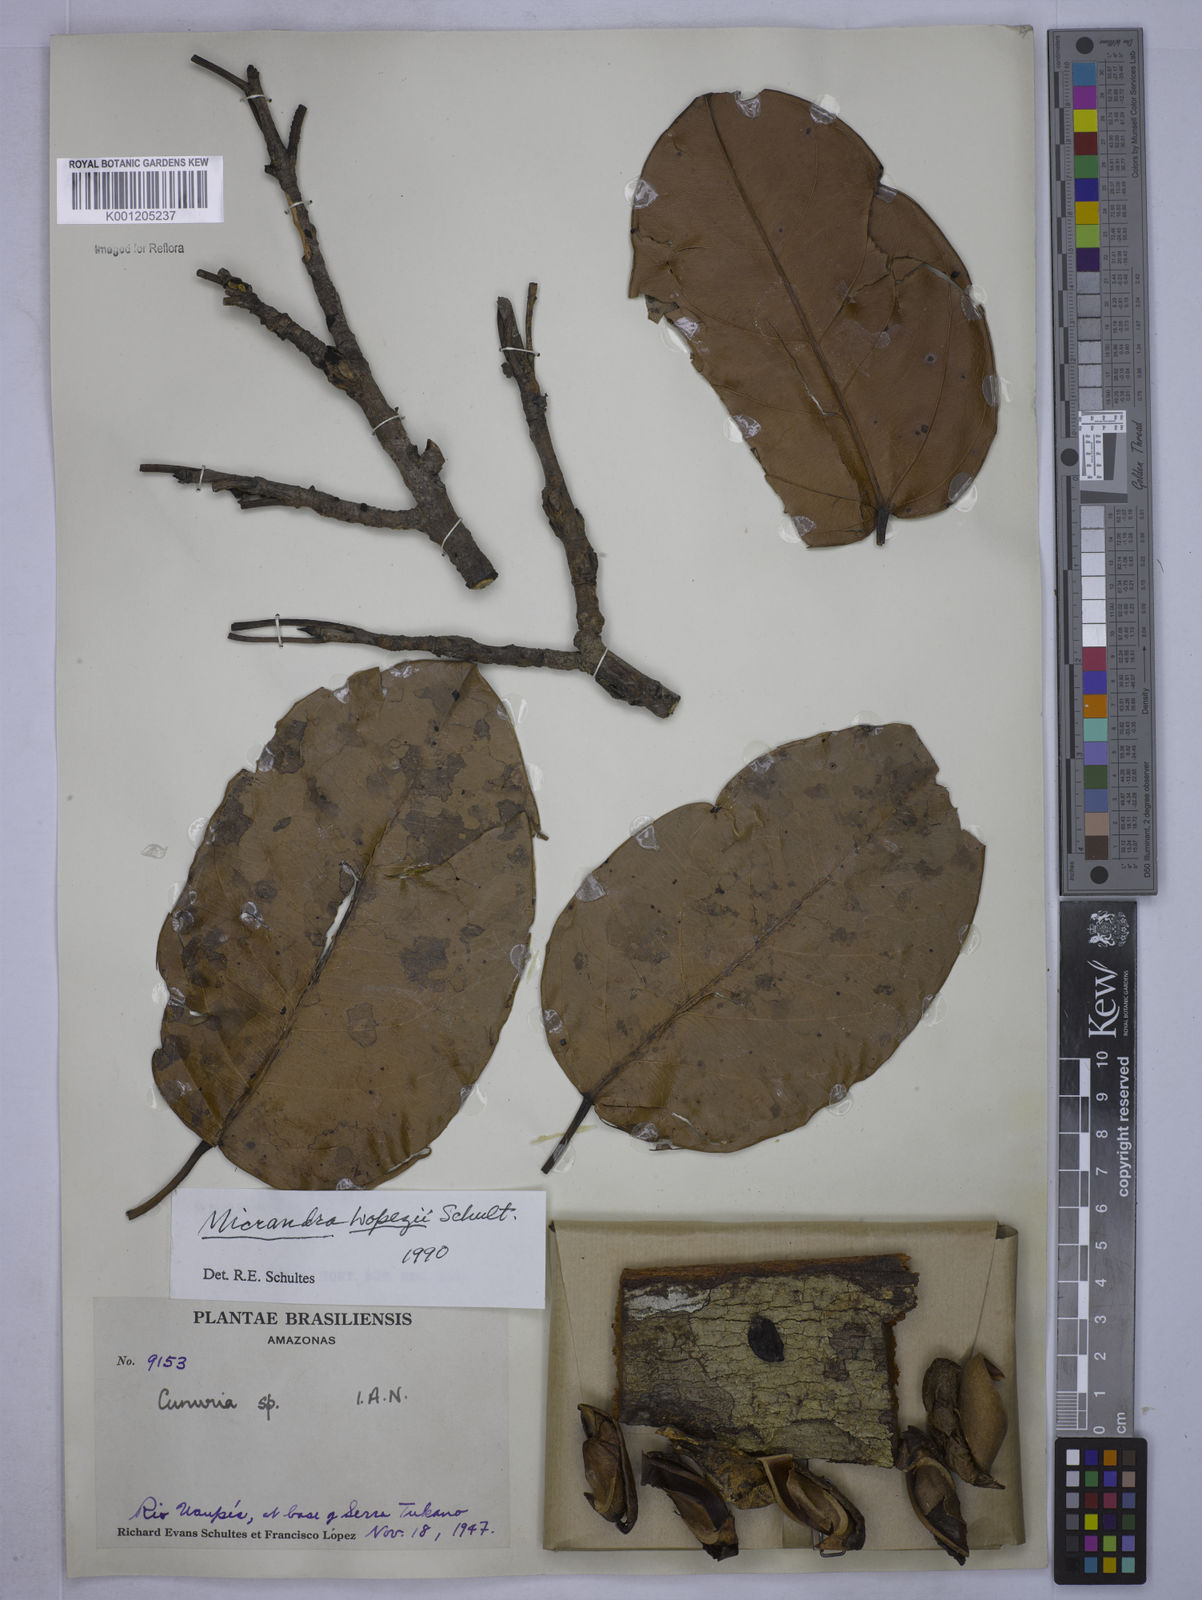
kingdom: Plantae
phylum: Tracheophyta
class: Magnoliopsida
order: Malpighiales
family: Euphorbiaceae
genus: Micrandra
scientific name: Micrandra lopezii
